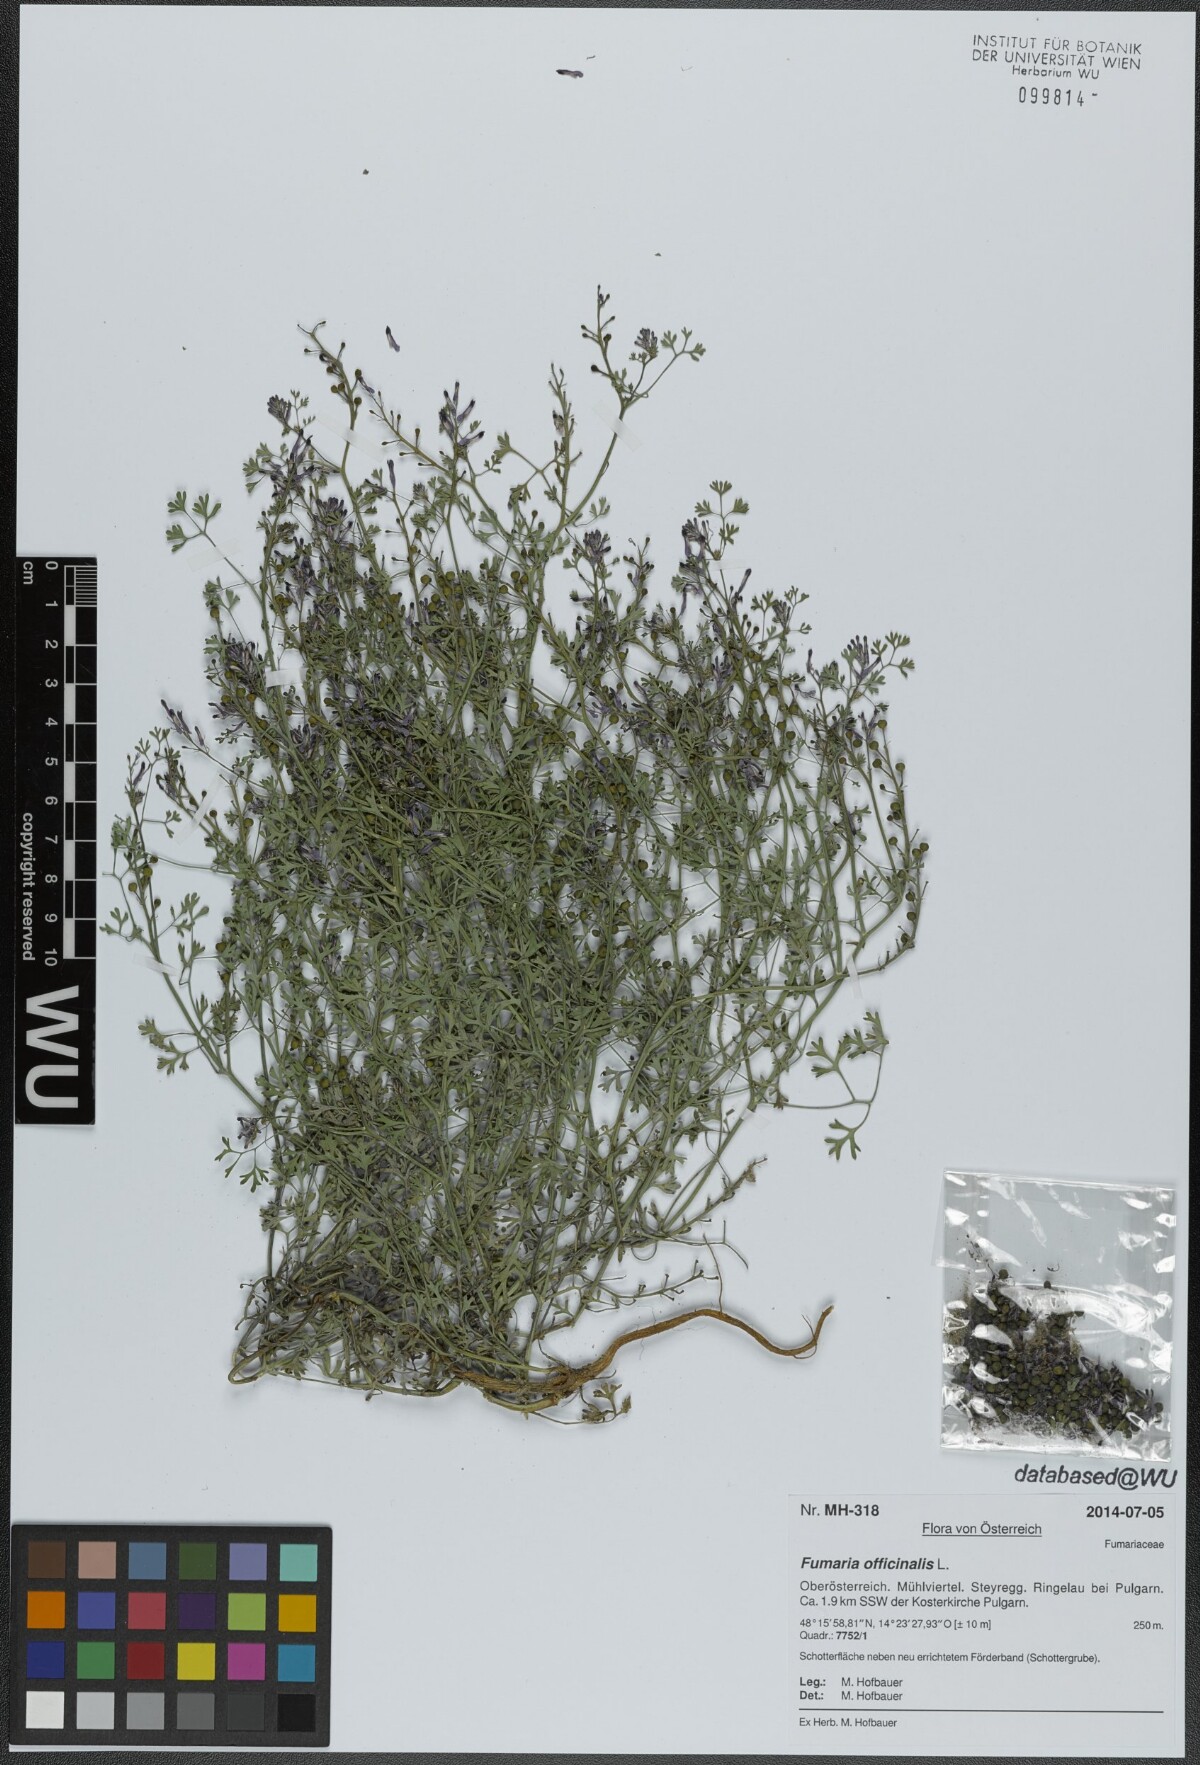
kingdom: Plantae
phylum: Tracheophyta
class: Magnoliopsida
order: Ranunculales
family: Papaveraceae
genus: Fumaria
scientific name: Fumaria officinalis
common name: Common fumitory
